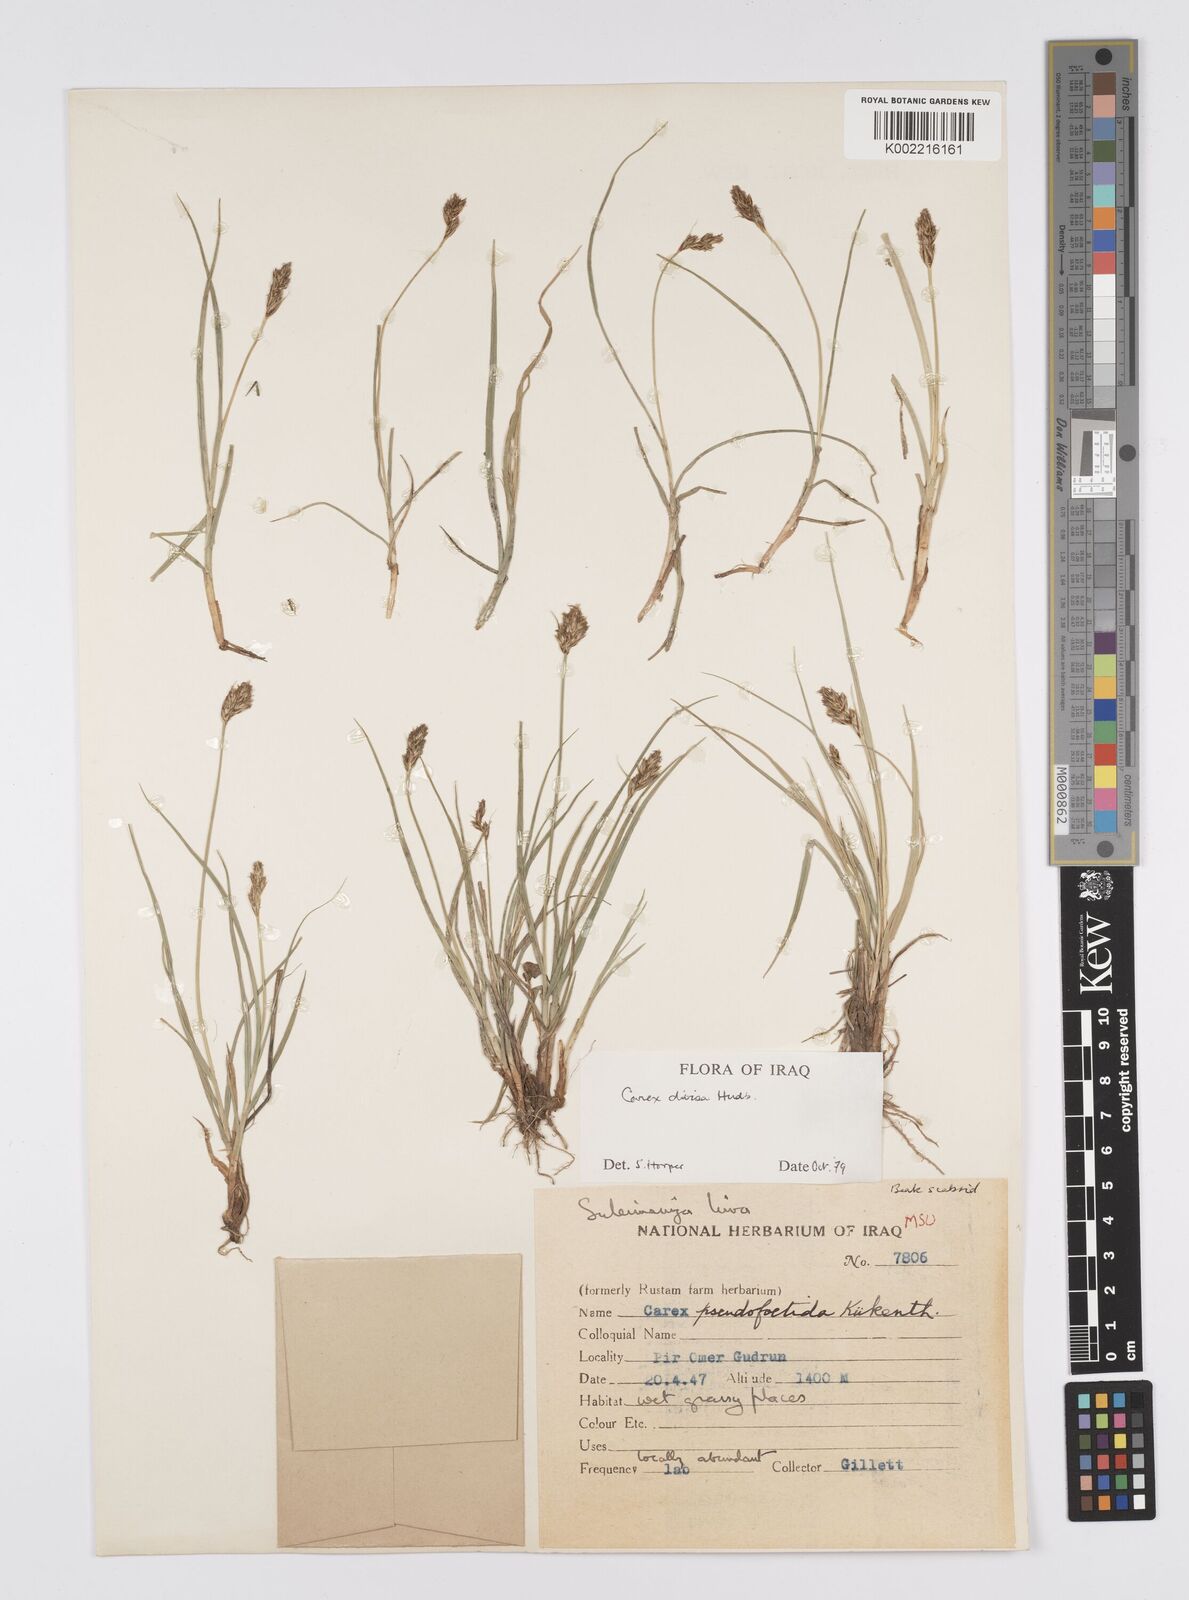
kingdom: Plantae
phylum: Tracheophyta
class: Liliopsida
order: Poales
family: Cyperaceae
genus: Carex
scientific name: Carex divisa
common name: Divided sedge
